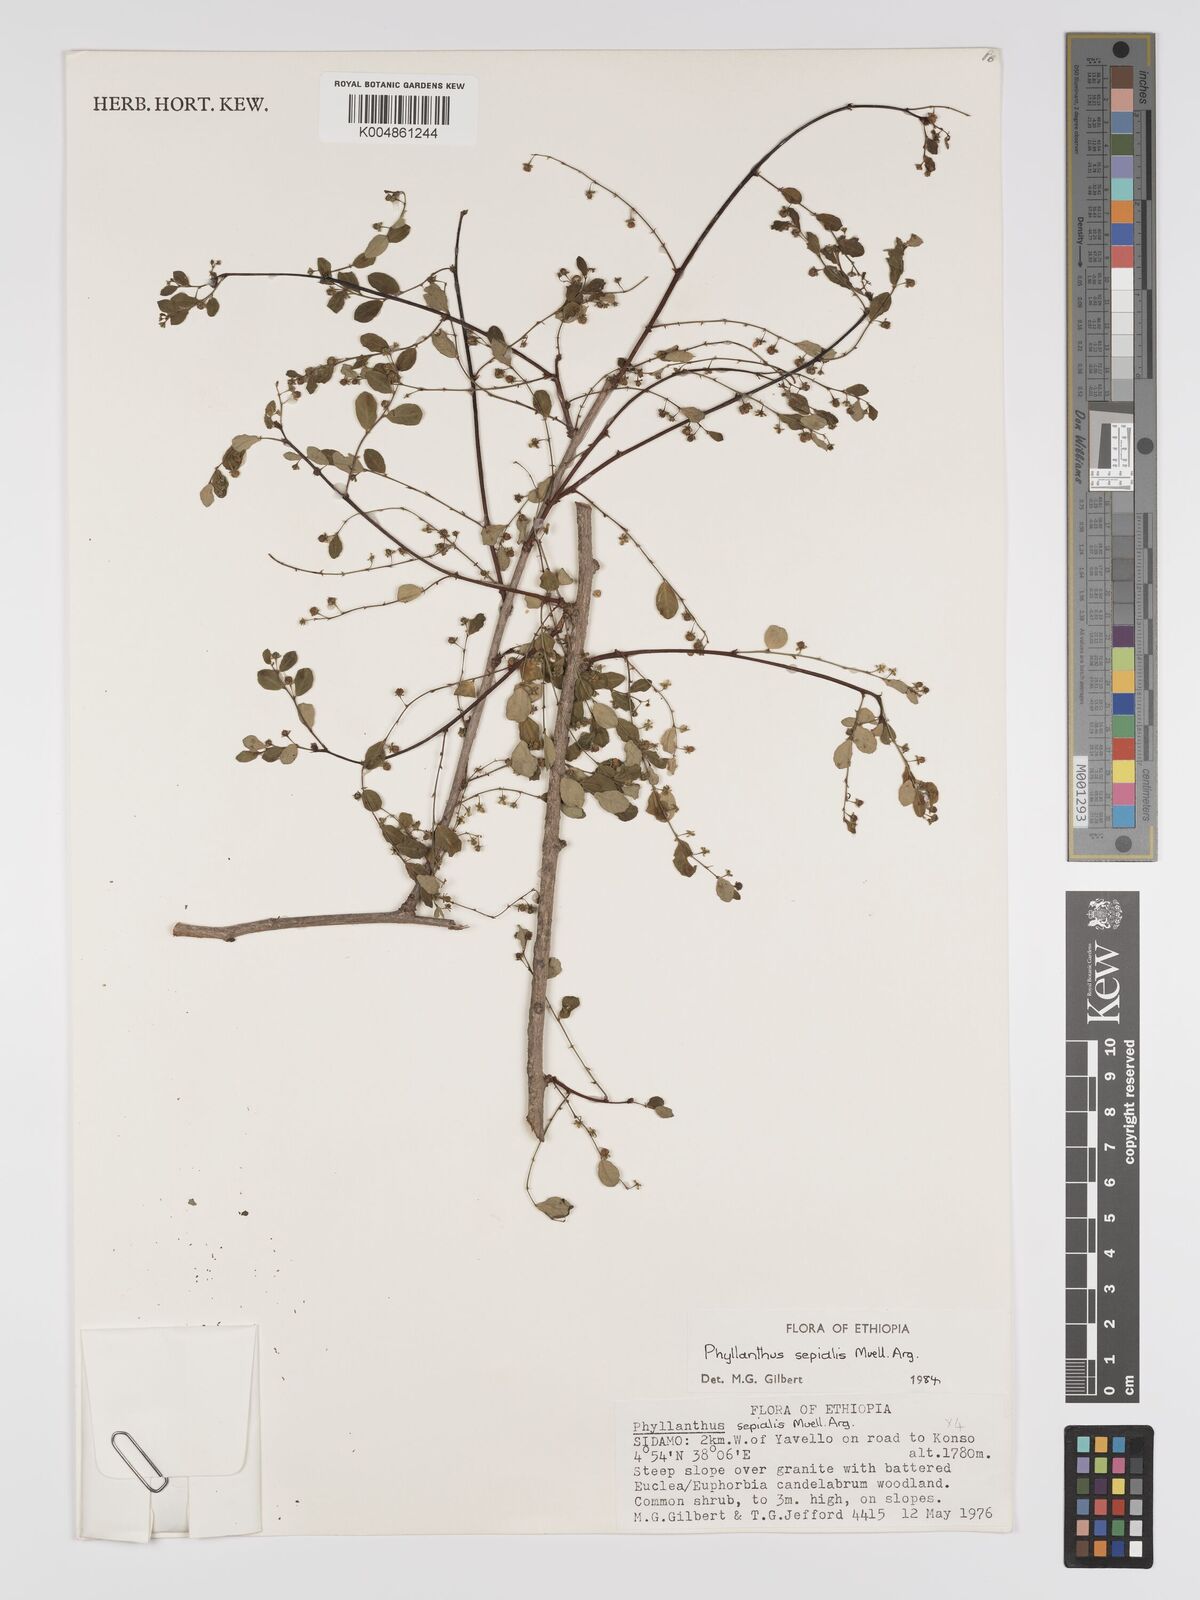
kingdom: Plantae
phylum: Tracheophyta
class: Magnoliopsida
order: Malpighiales
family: Phyllanthaceae
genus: Phyllanthus
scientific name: Phyllanthus sepialis
